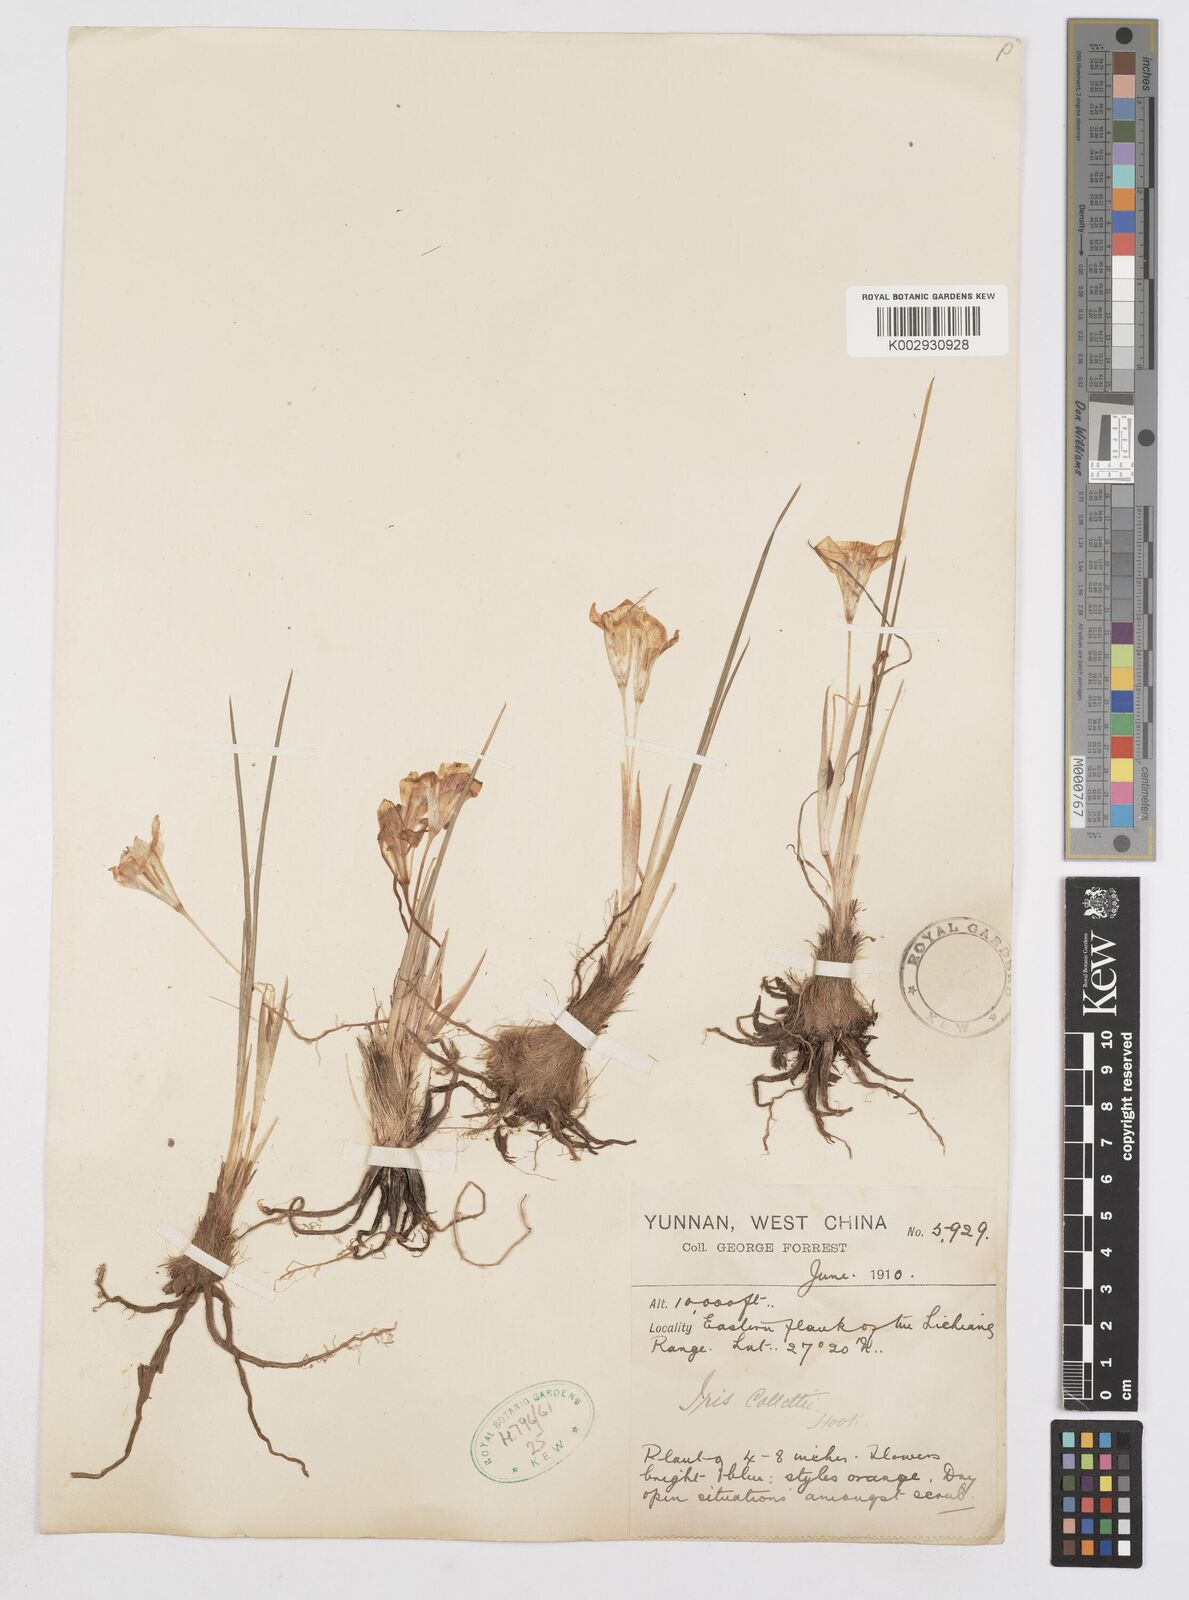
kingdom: Plantae
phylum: Tracheophyta
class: Liliopsida
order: Asparagales
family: Iridaceae
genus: Iris
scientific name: Iris collettii
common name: Plateau iris
